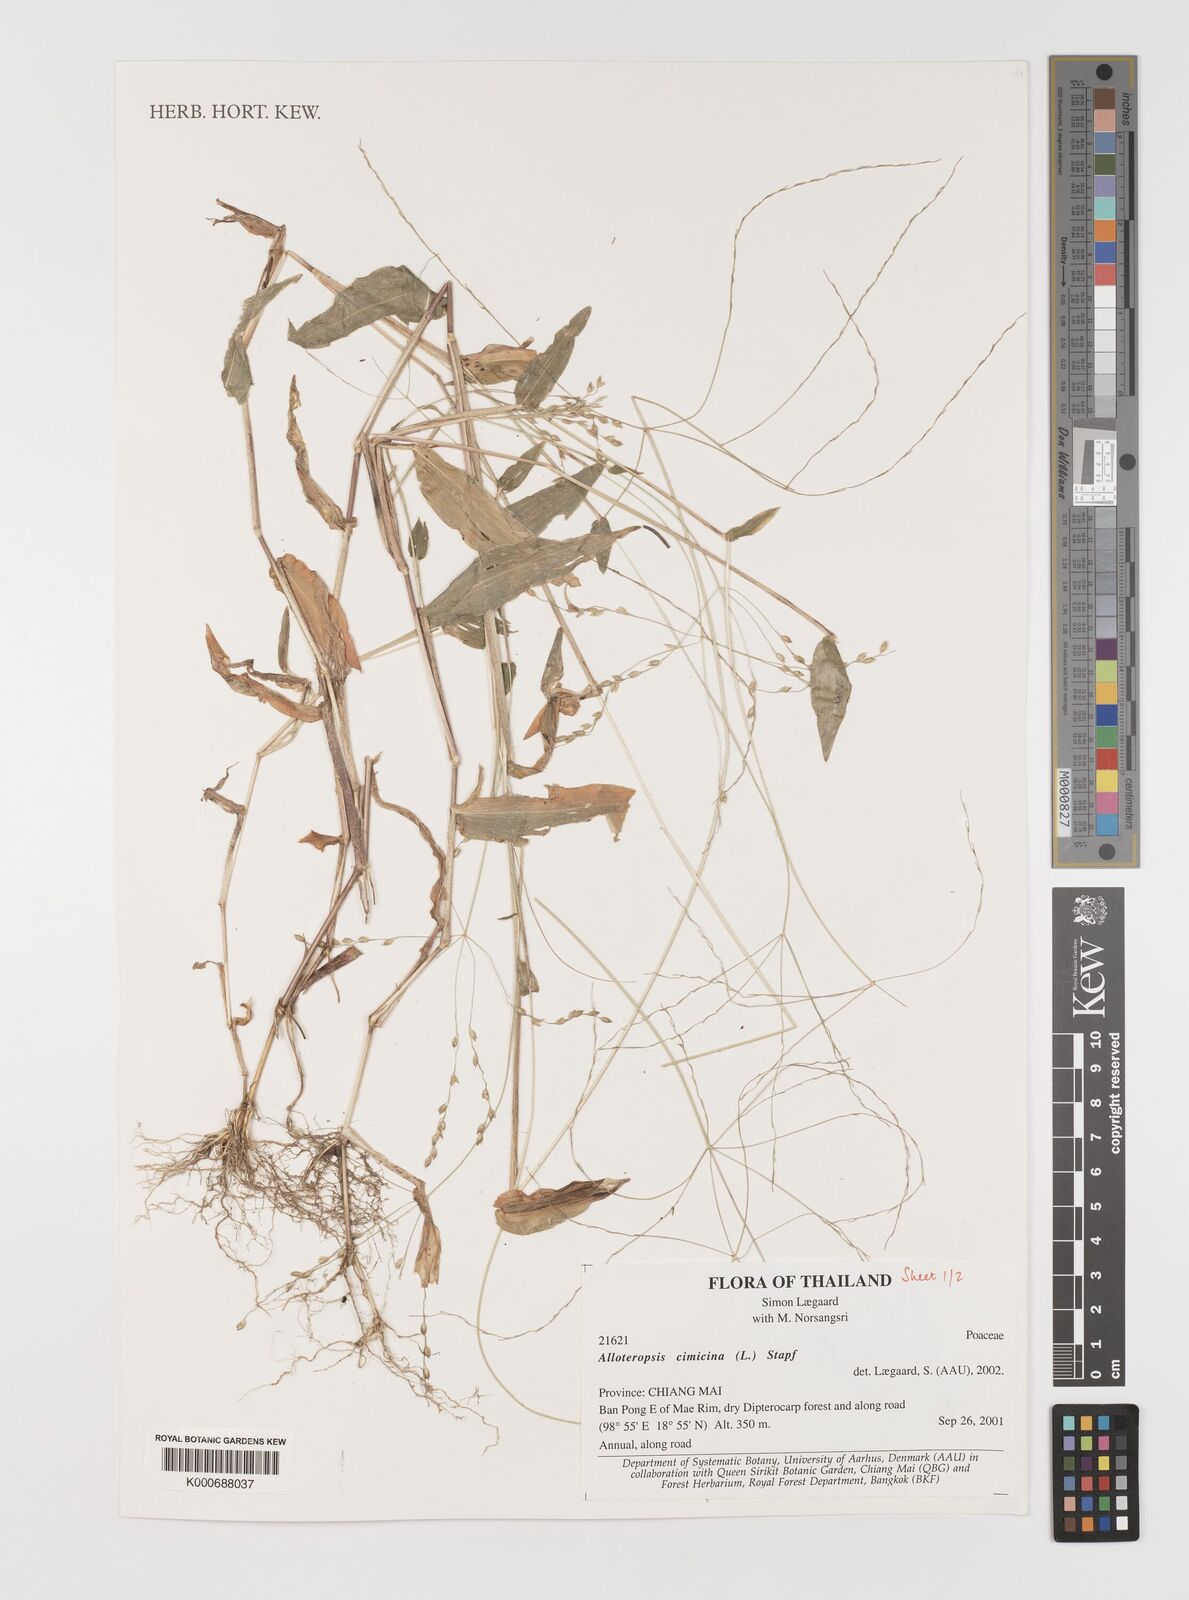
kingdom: Plantae
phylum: Tracheophyta
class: Liliopsida
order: Poales
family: Poaceae
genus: Alloteropsis
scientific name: Alloteropsis cimicina
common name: Summergrass
